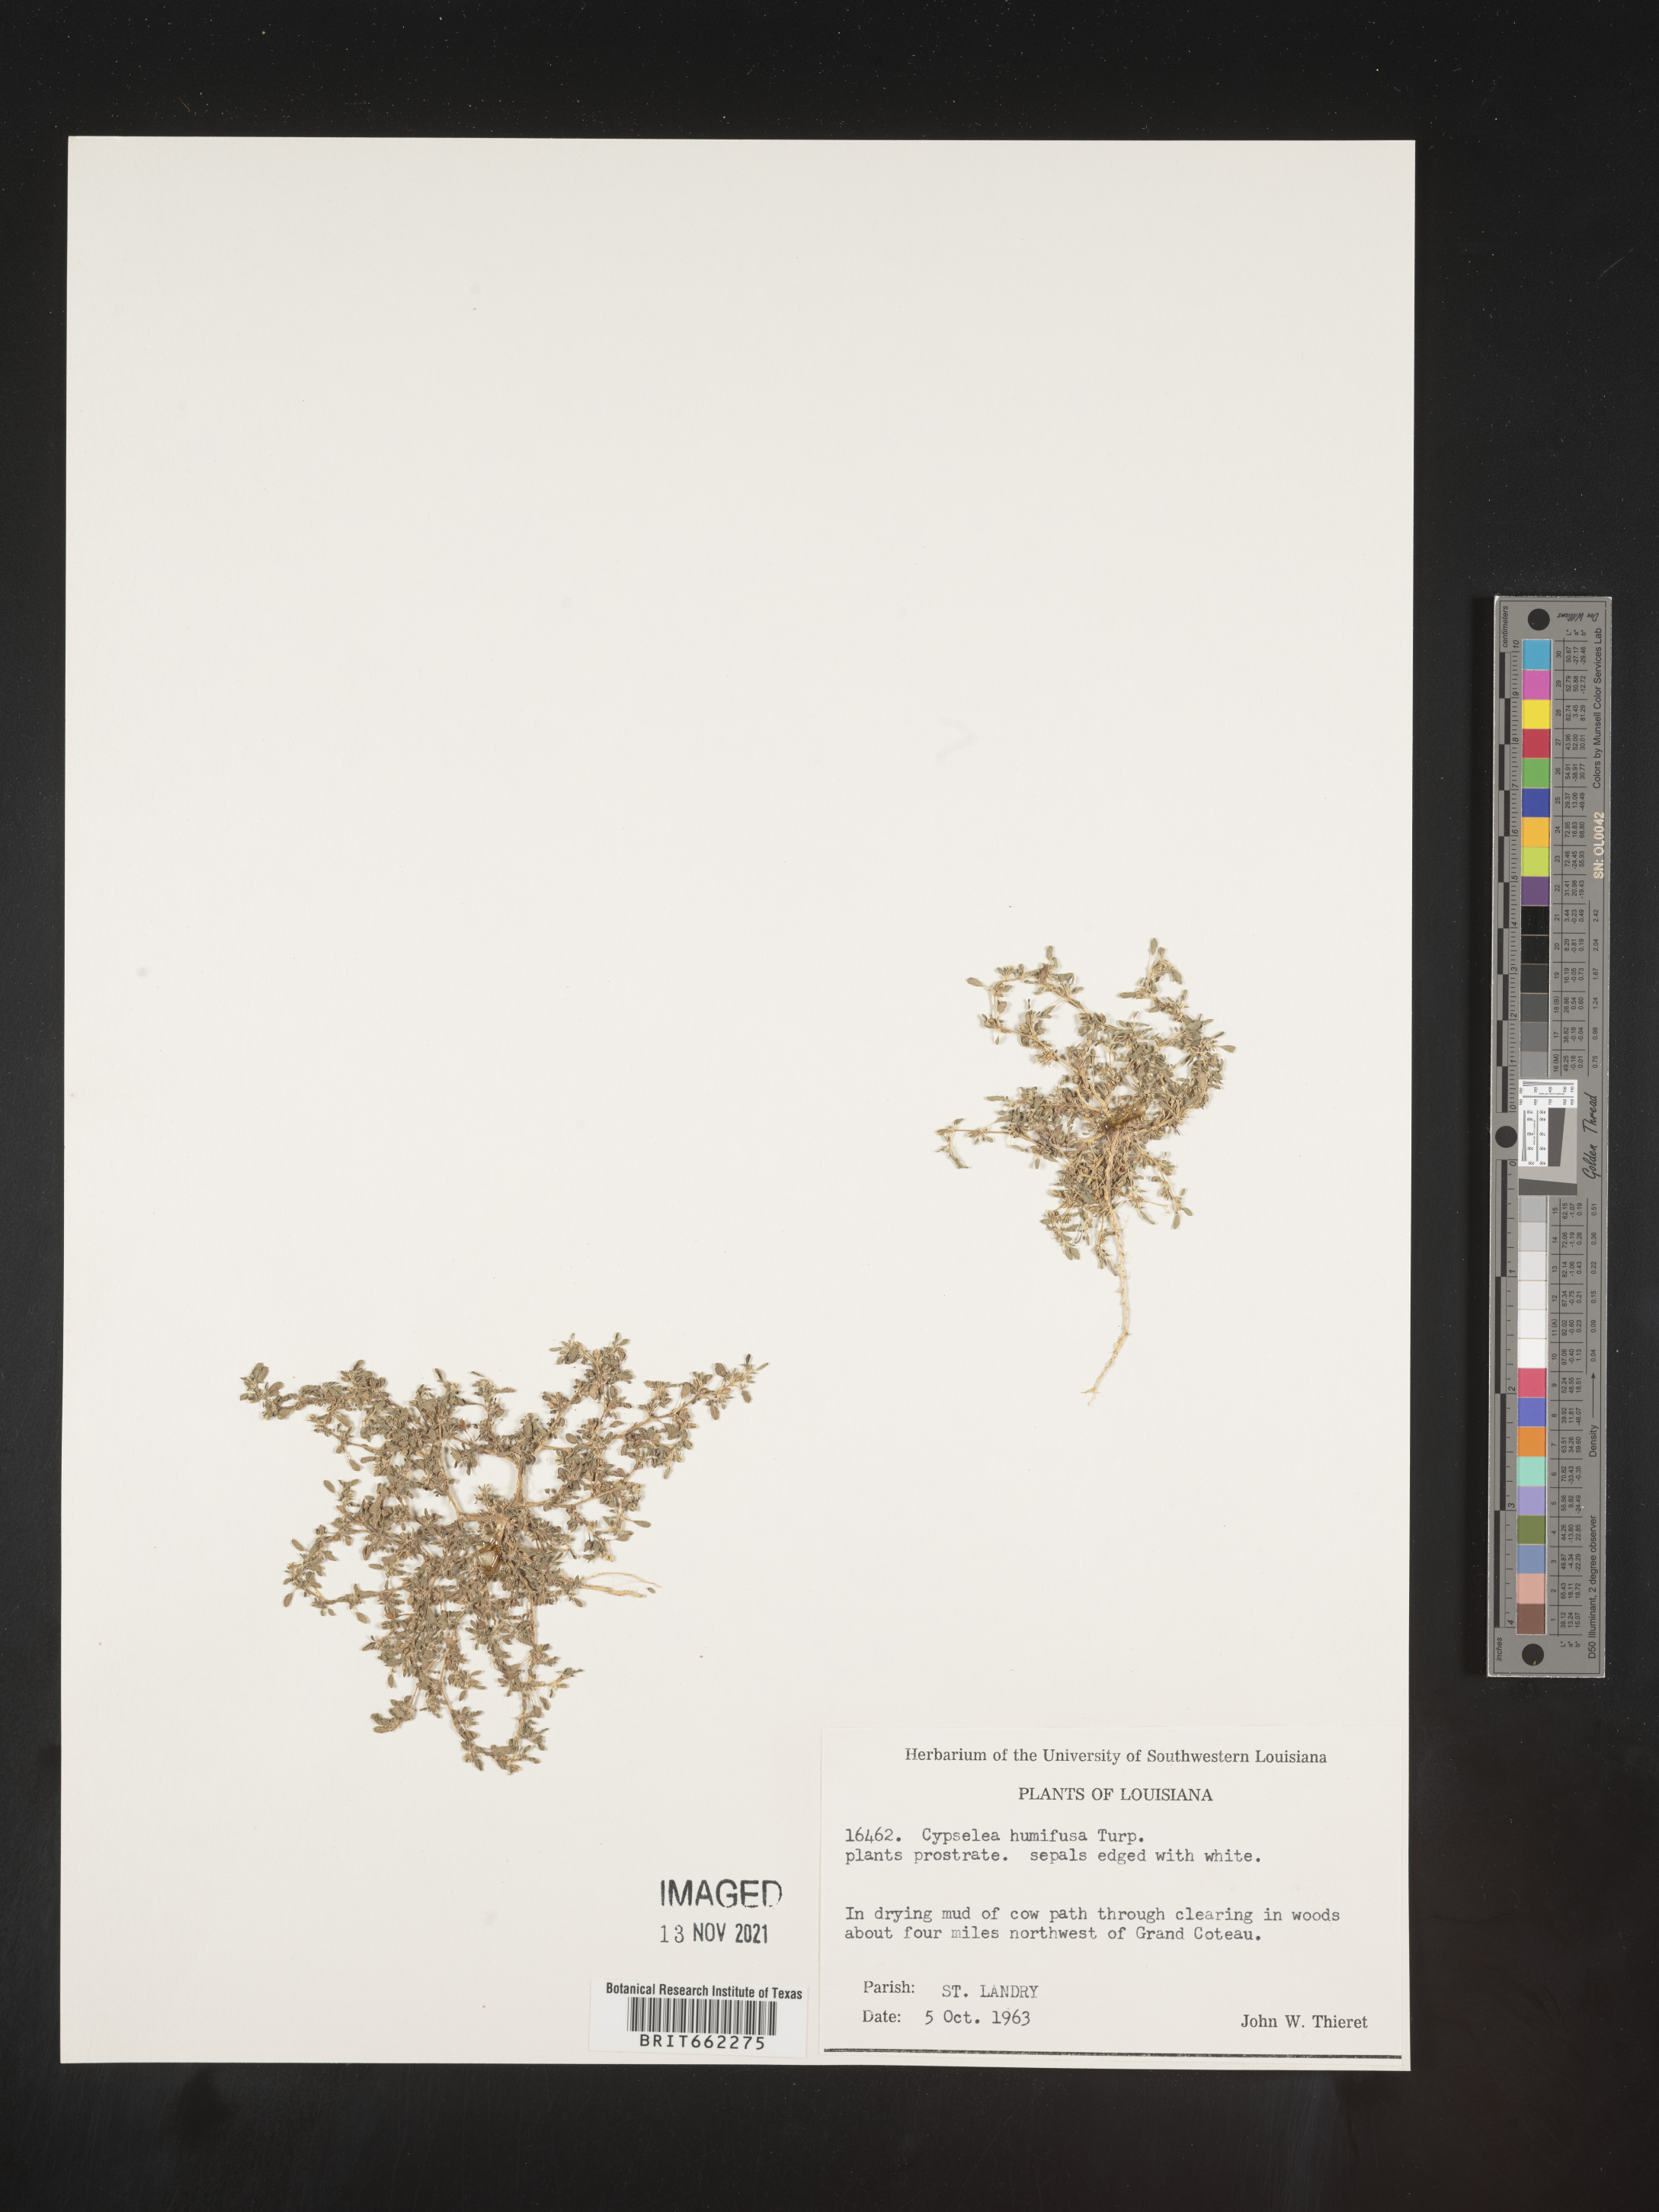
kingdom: Plantae
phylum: Tracheophyta
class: Magnoliopsida
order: Caryophyllales
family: Aizoaceae
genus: Sesuvium
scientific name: Sesuvium
